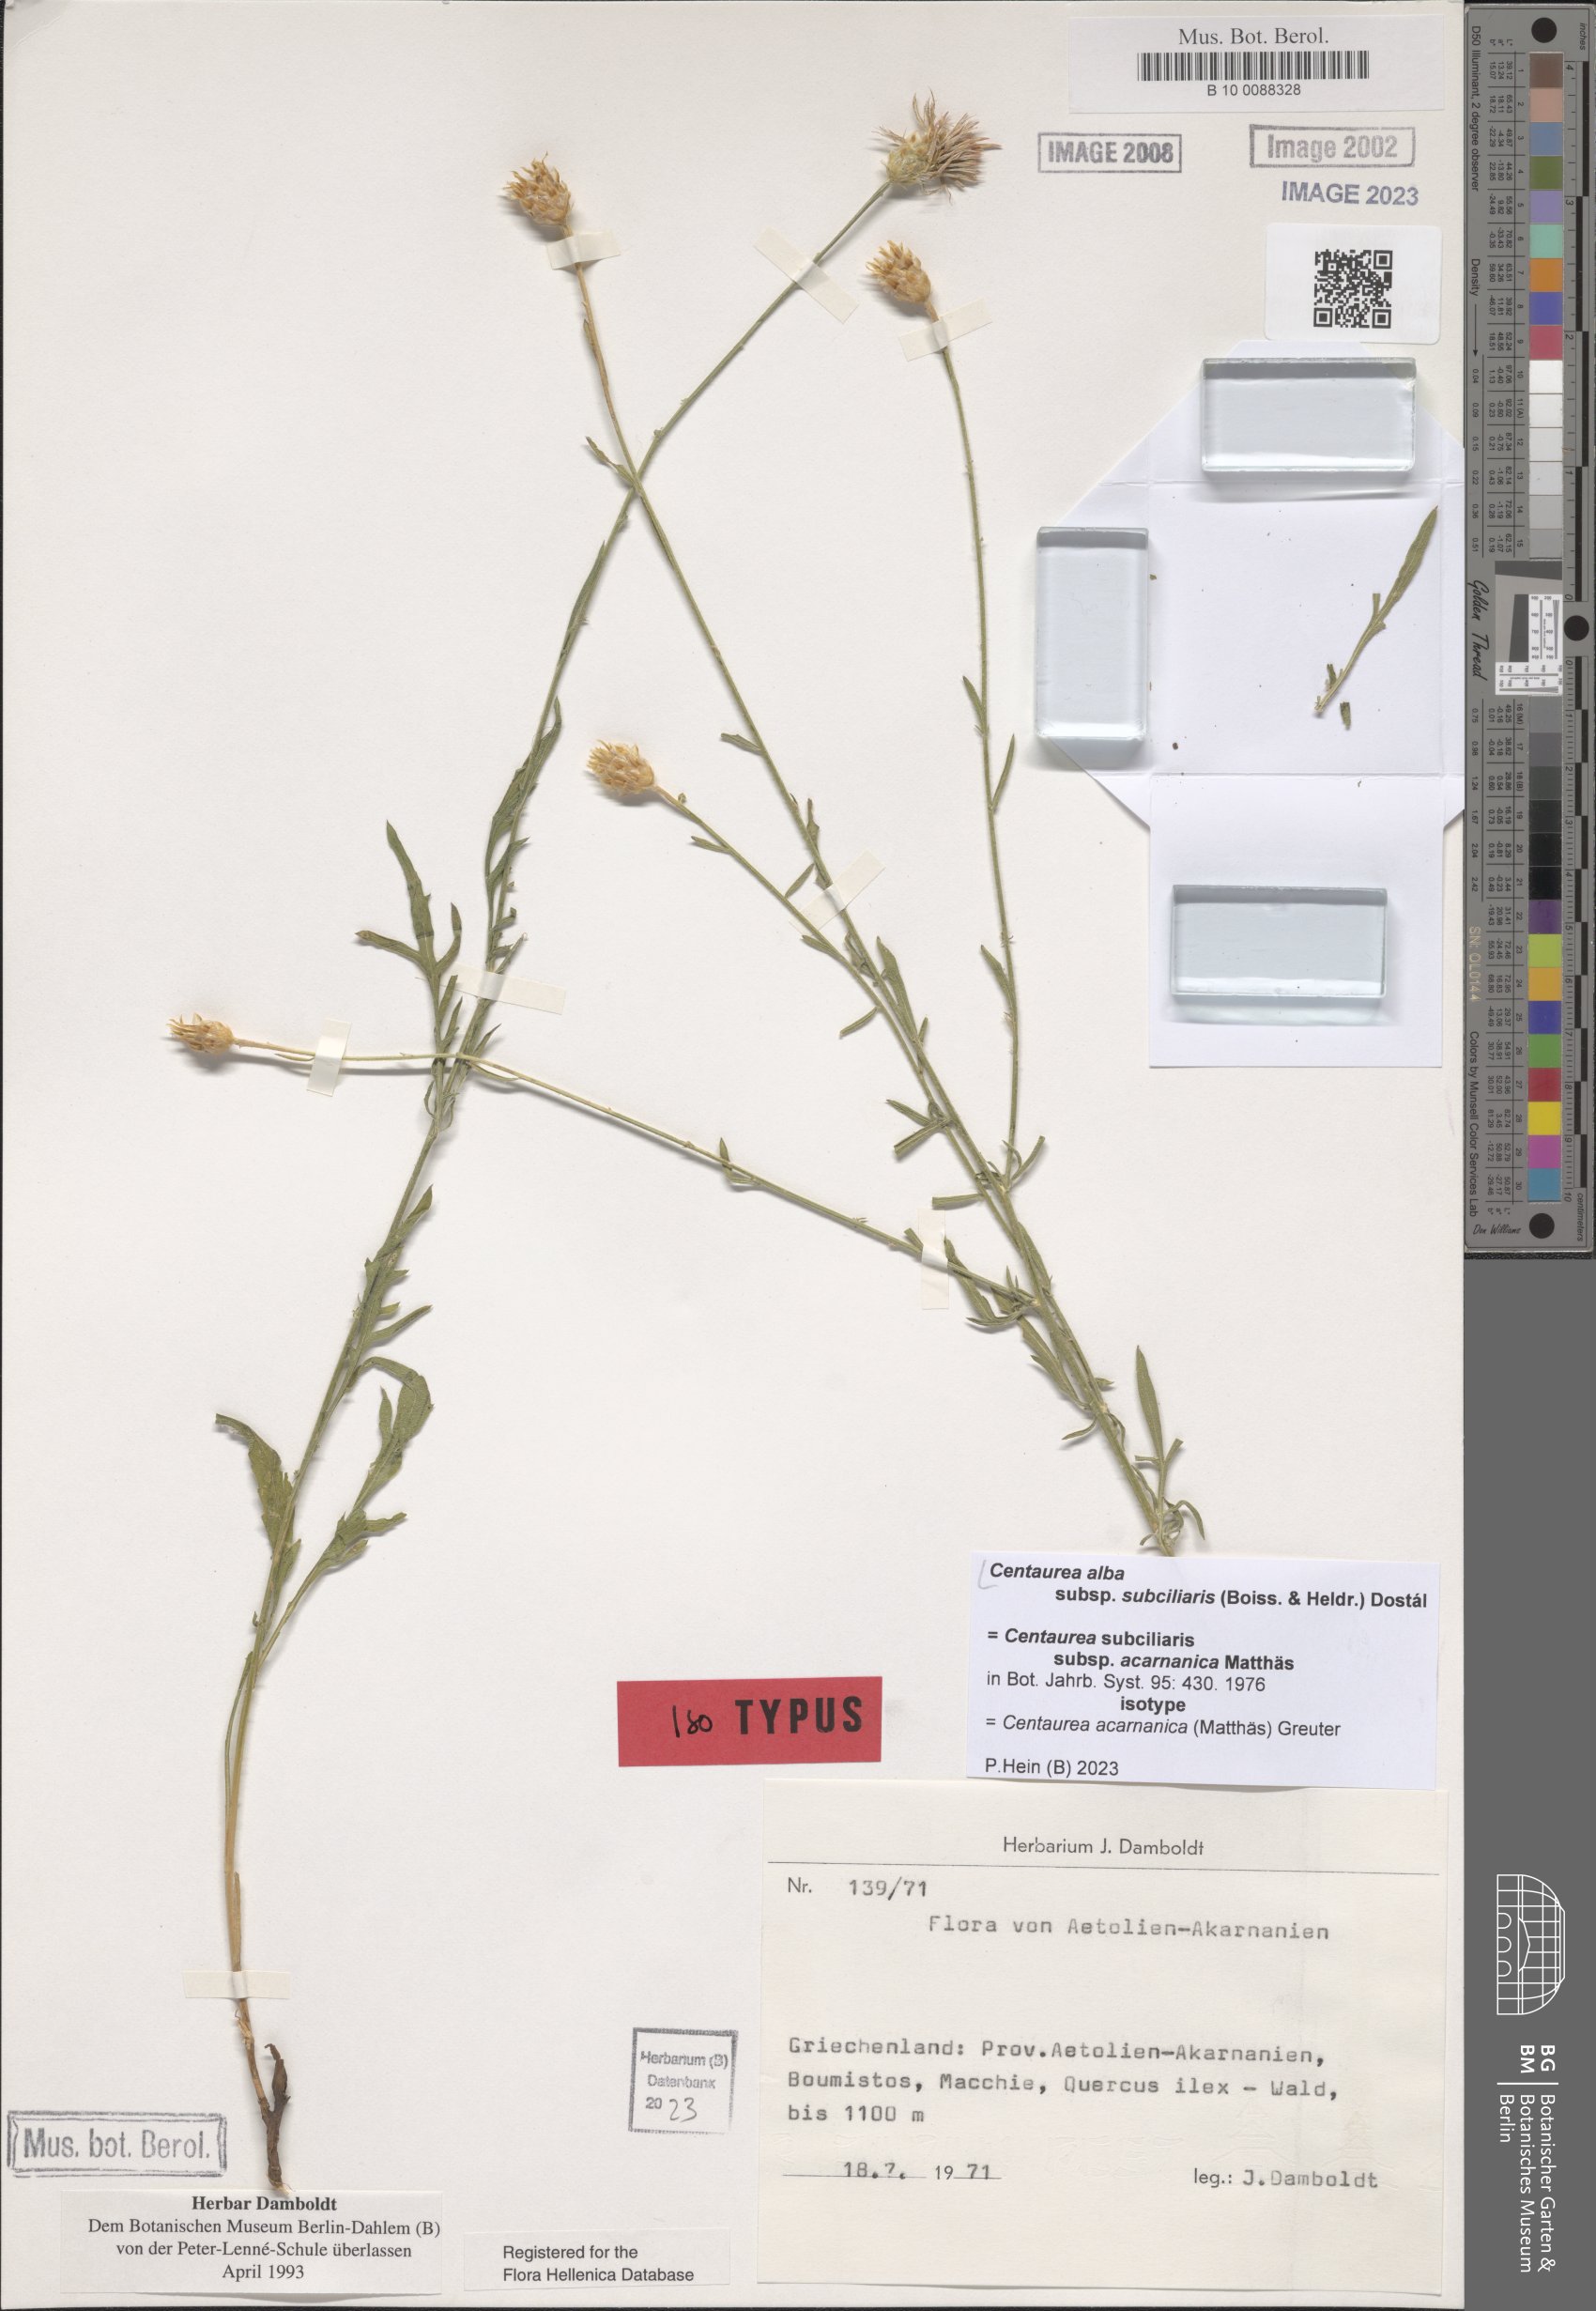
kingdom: Plantae
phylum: Tracheophyta
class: Magnoliopsida
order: Asterales
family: Asteraceae
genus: Centaurea
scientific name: Centaurea subciliaris
